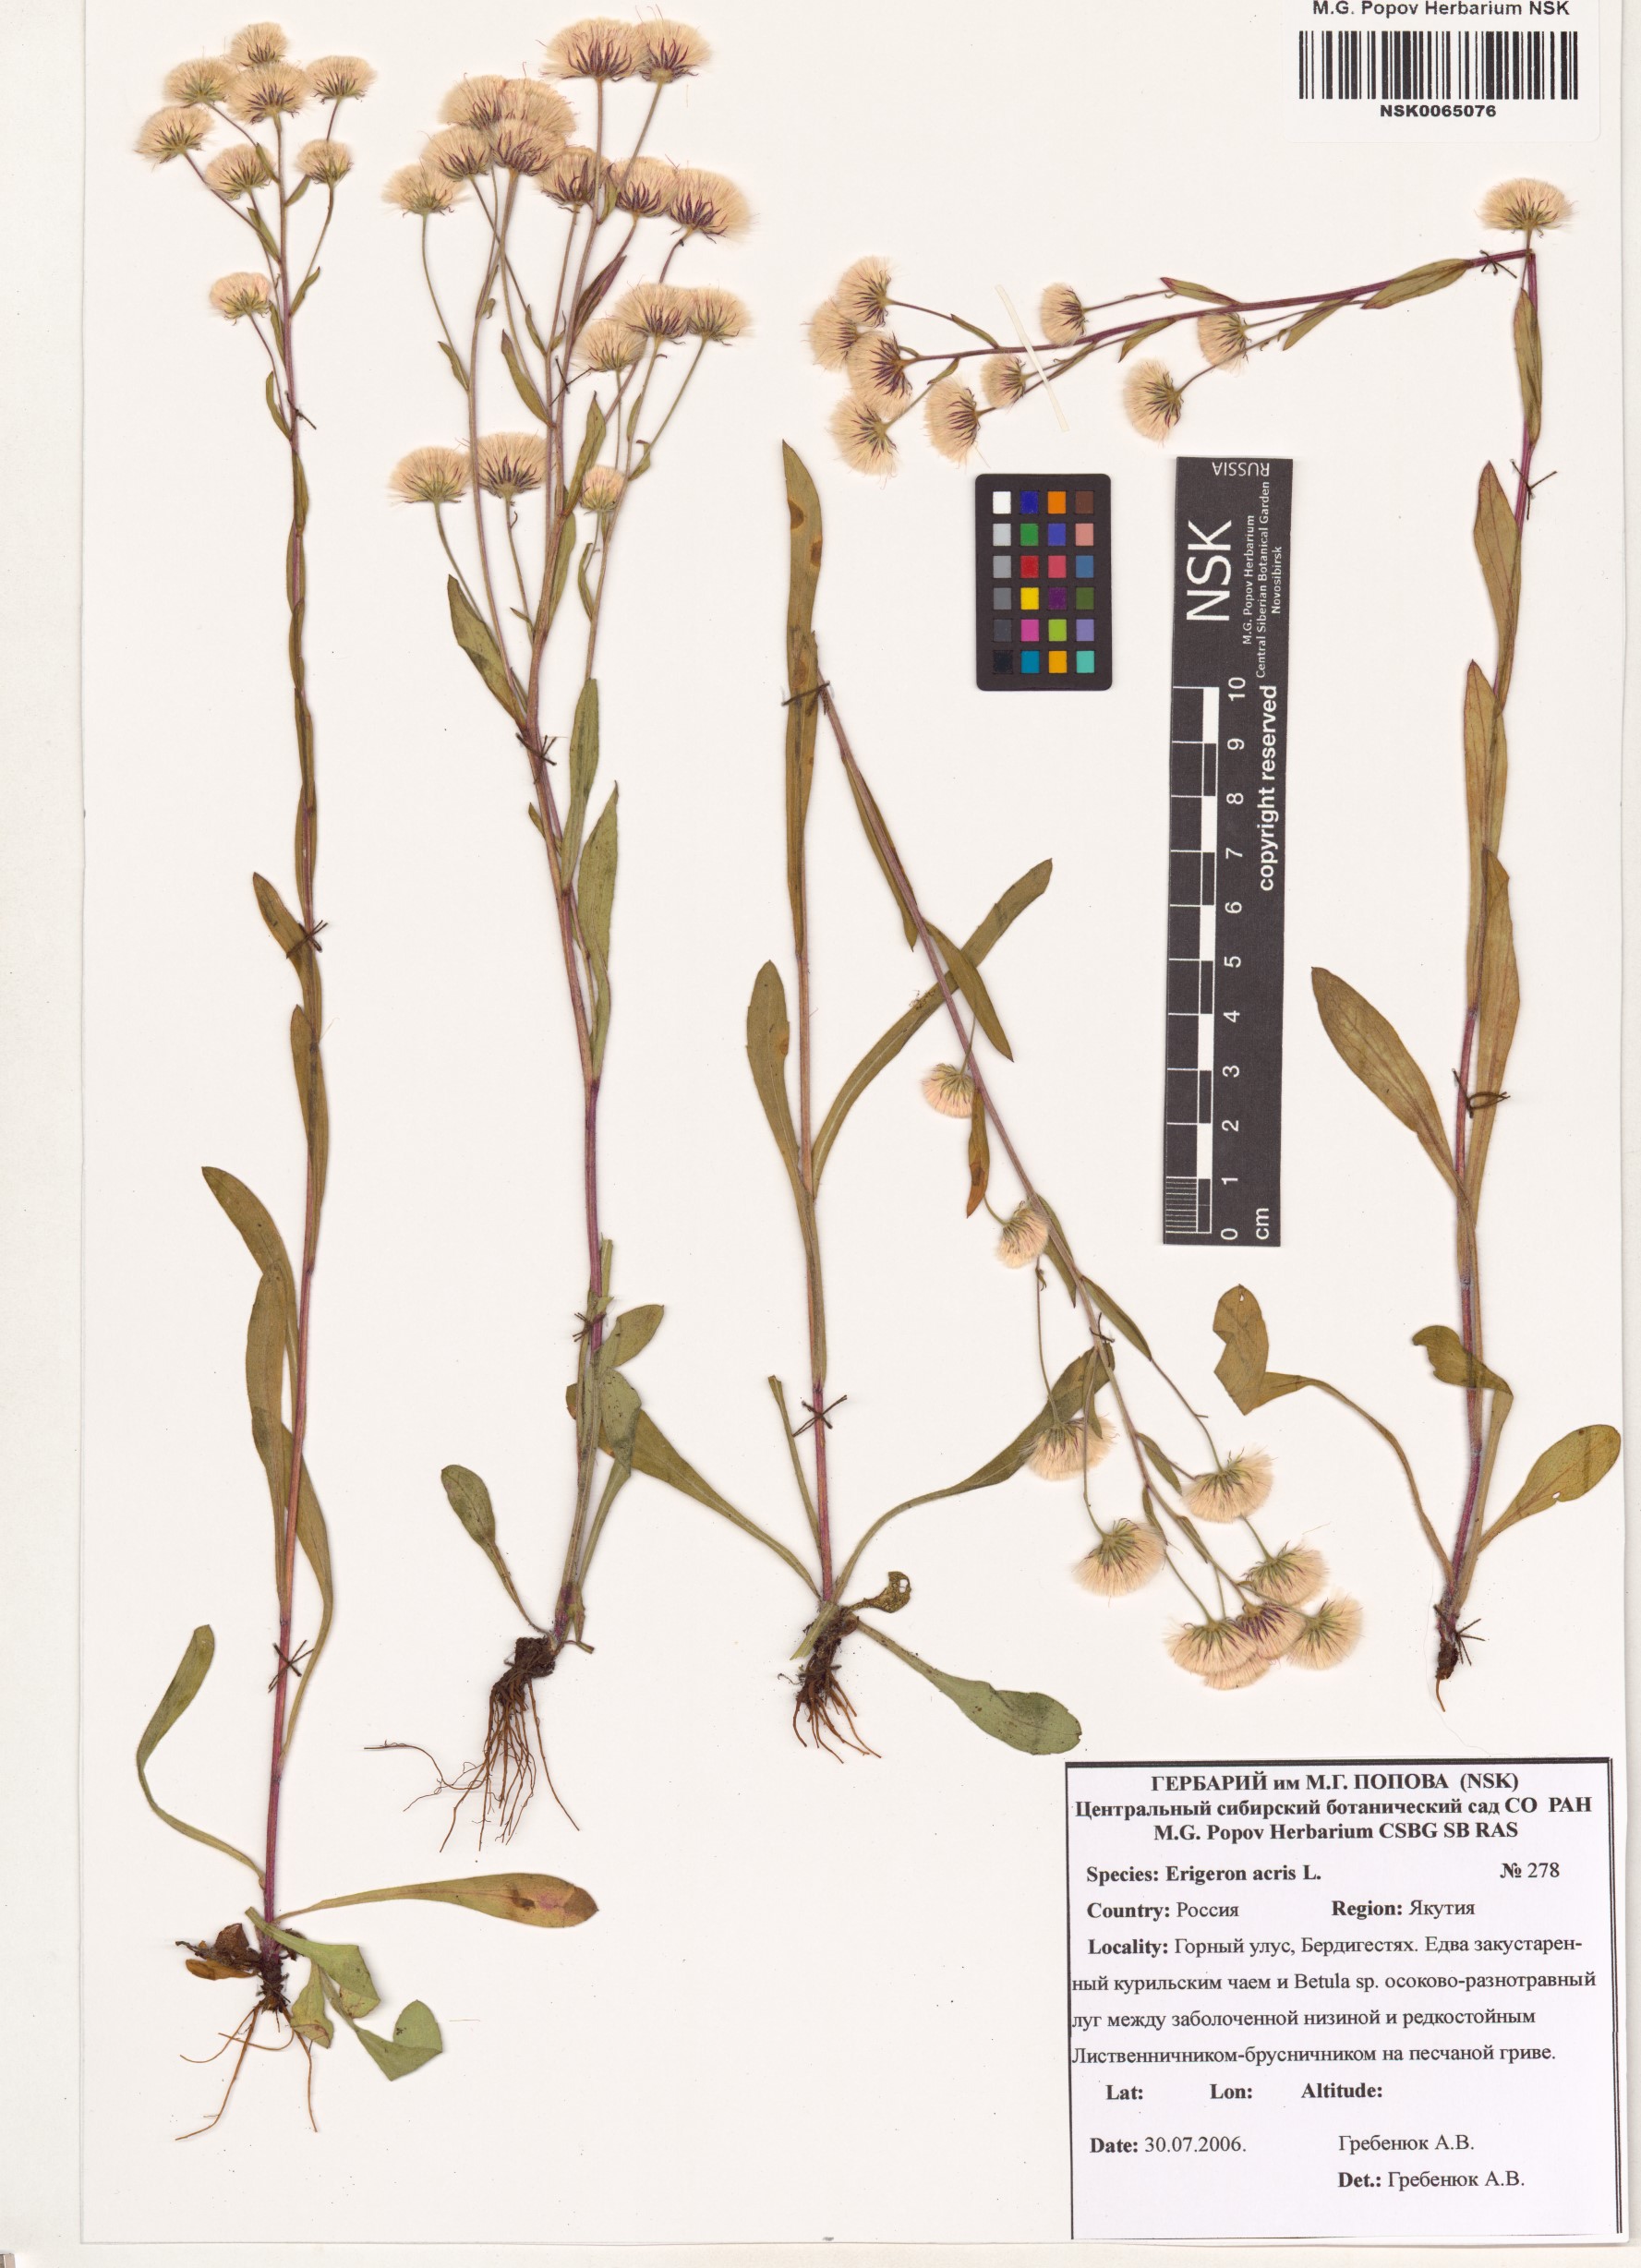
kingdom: Plantae
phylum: Tracheophyta
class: Magnoliopsida
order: Asterales
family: Asteraceae
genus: Erigeron
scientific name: Erigeron acris
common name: Blue fleabane
